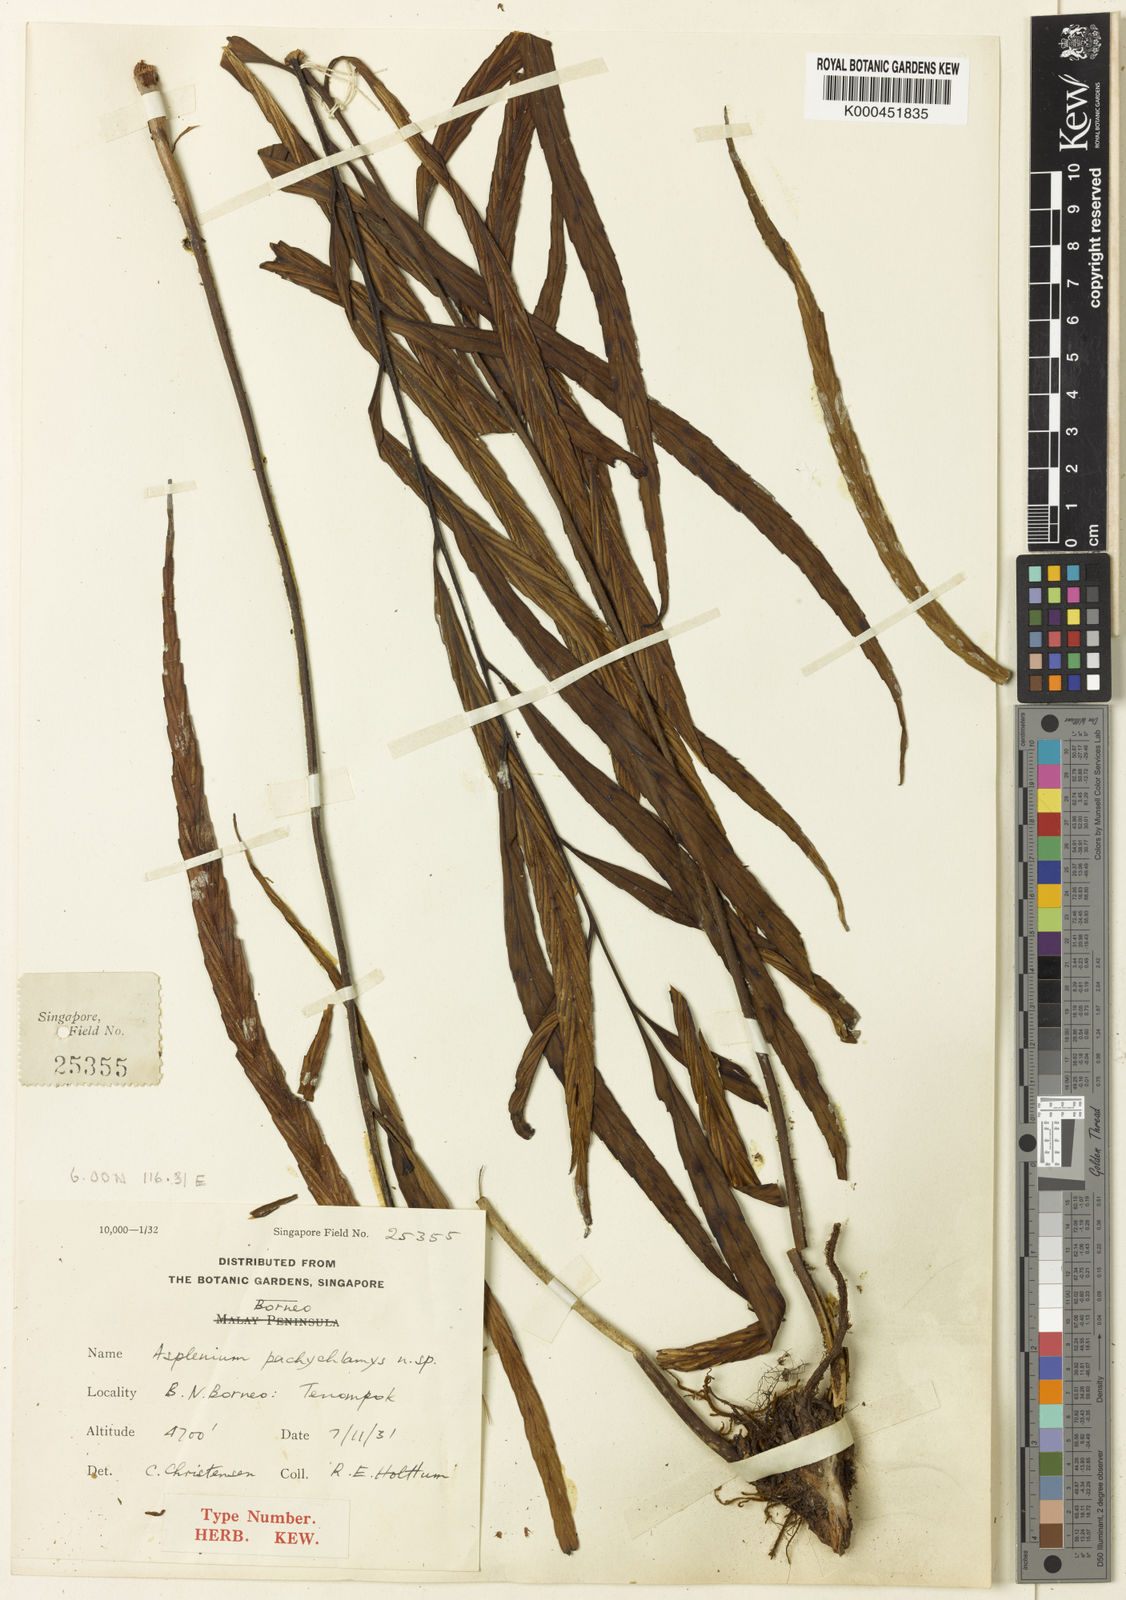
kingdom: Plantae
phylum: Tracheophyta
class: Polypodiopsida
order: Polypodiales
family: Aspleniaceae
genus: Asplenium
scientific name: Asplenium pachychlamys
